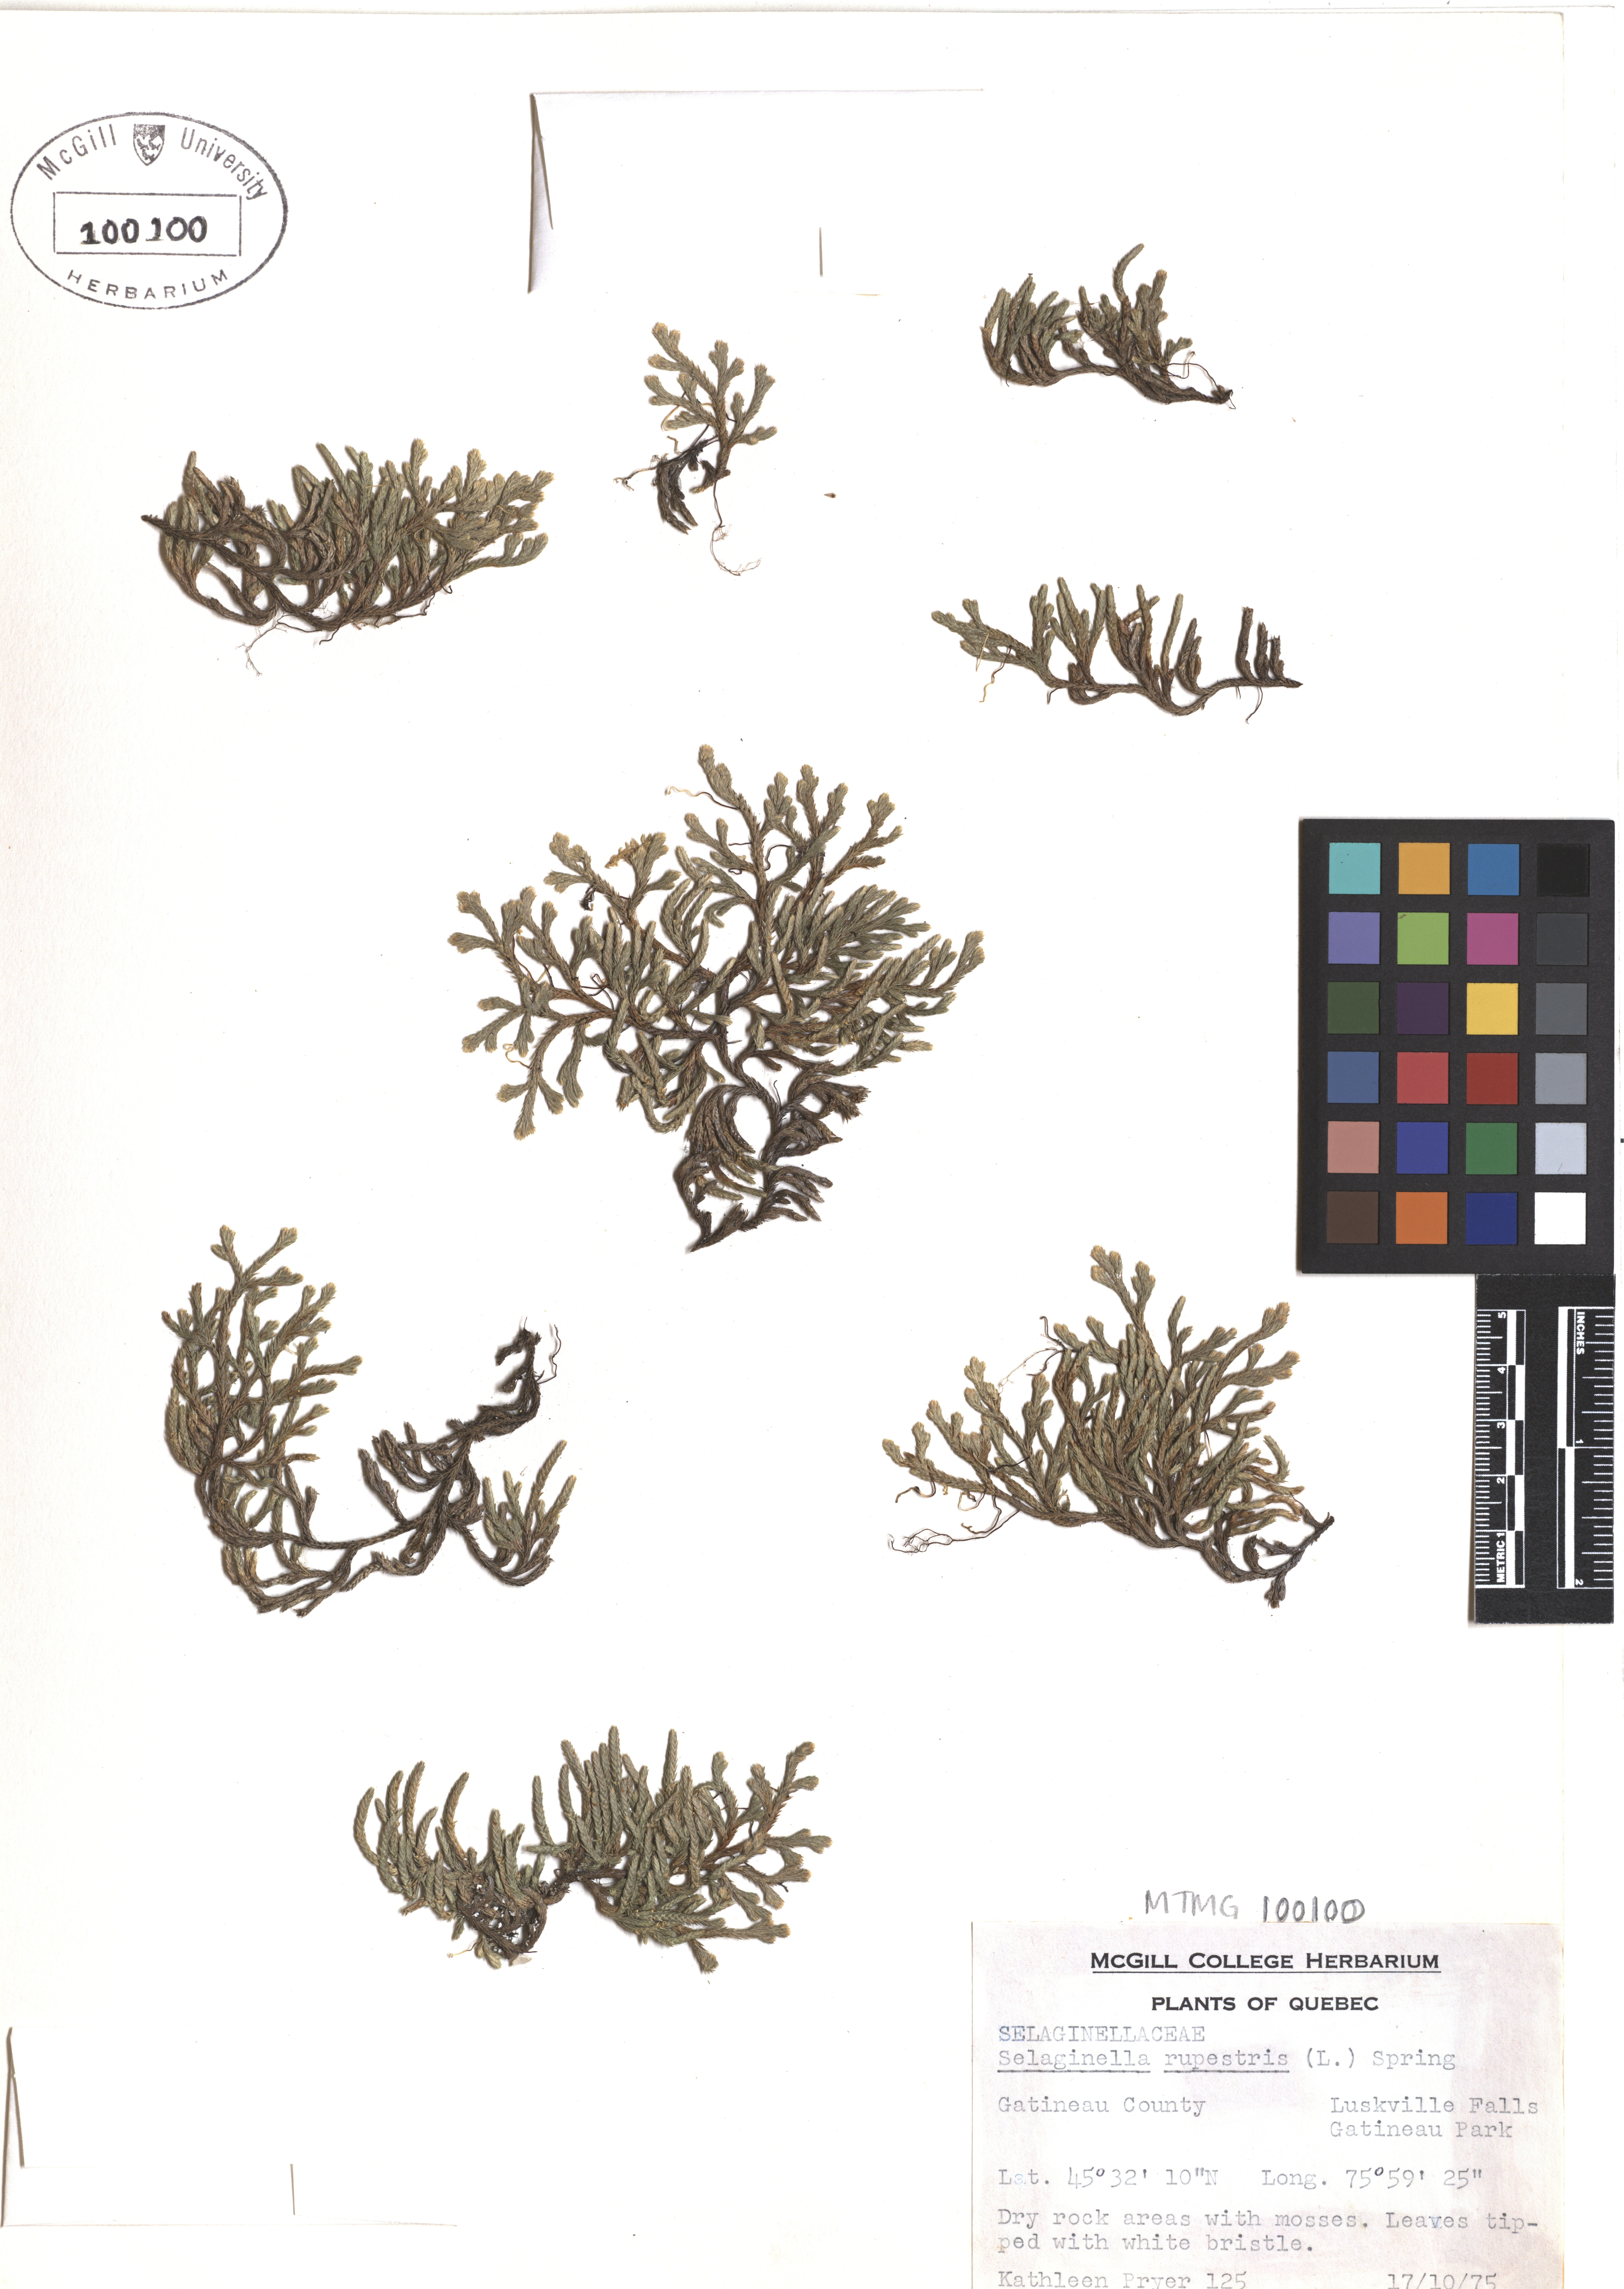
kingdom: Plantae
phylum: Tracheophyta
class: Lycopodiopsida
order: Selaginellales
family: Selaginellaceae
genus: Selaginella
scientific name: Selaginella sellowii
